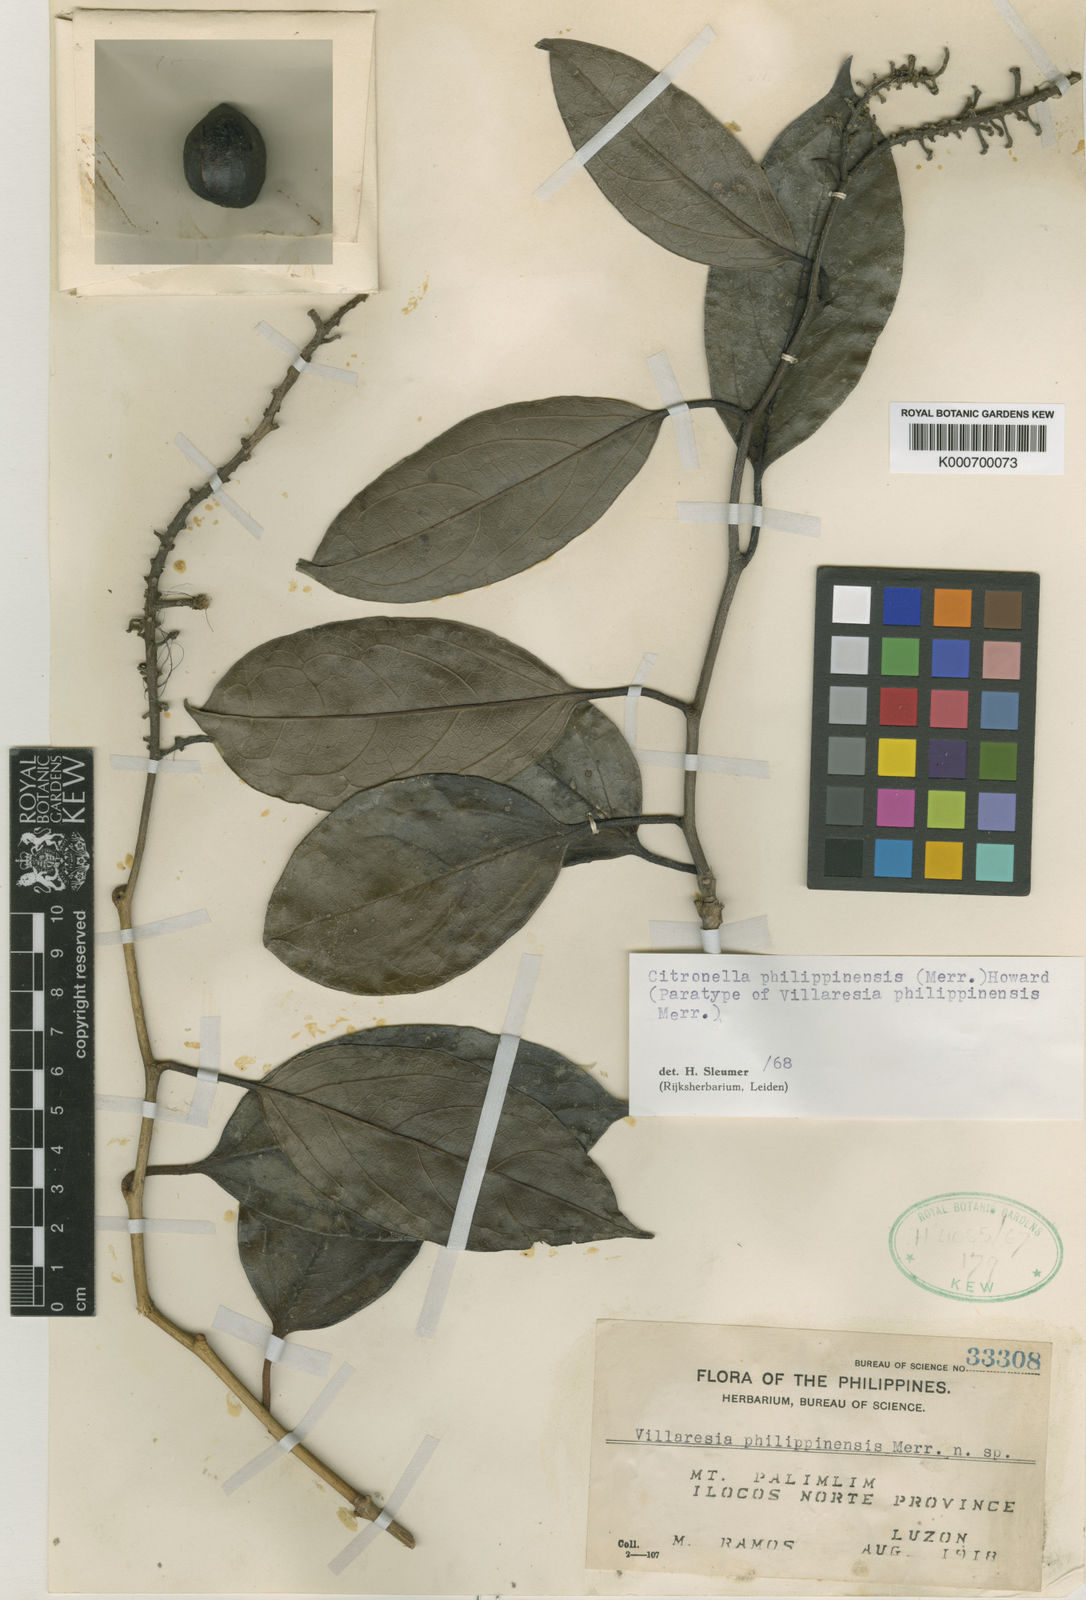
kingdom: Plantae
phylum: Tracheophyta
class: Magnoliopsida
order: Cardiopteridales
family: Cardiopteridaceae
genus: Citronella
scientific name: Citronella philippinensis
